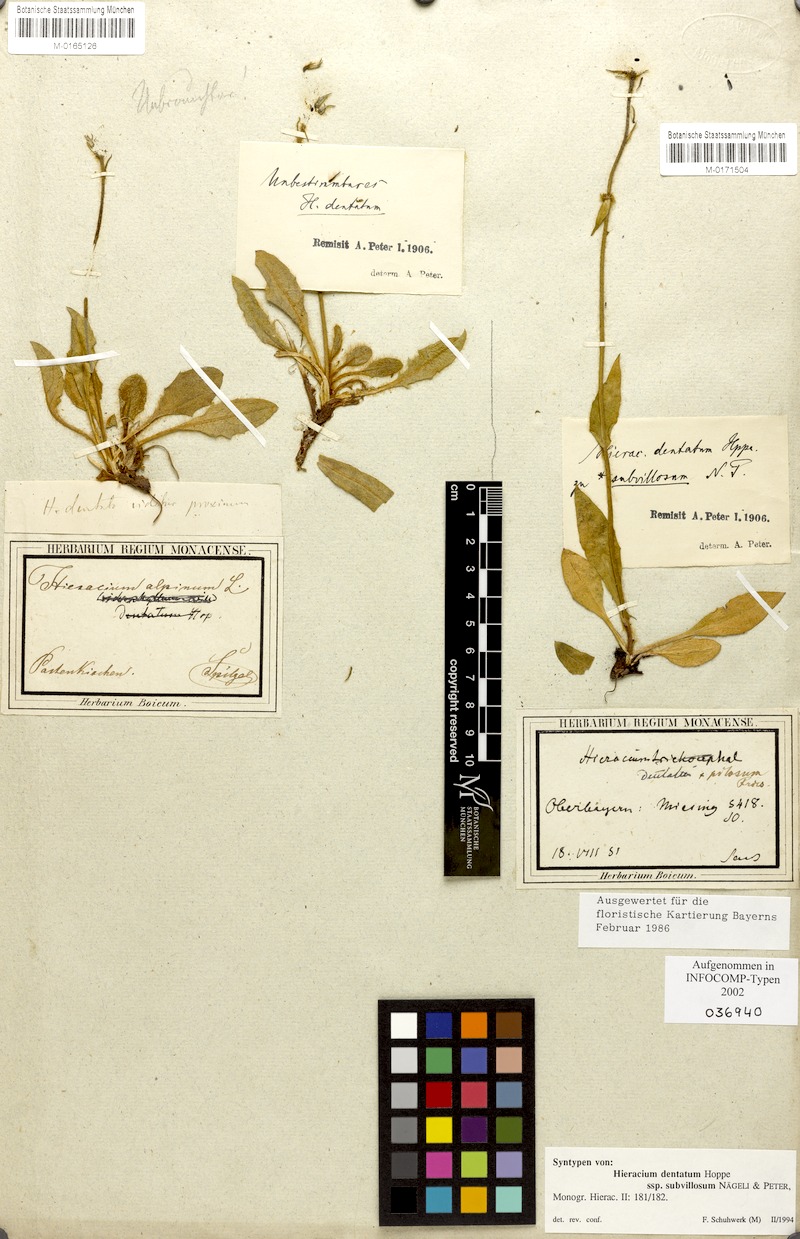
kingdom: Plantae
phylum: Tracheophyta
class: Magnoliopsida
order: Asterales
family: Asteraceae
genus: Hieracium
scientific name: Hieracium dentatum
